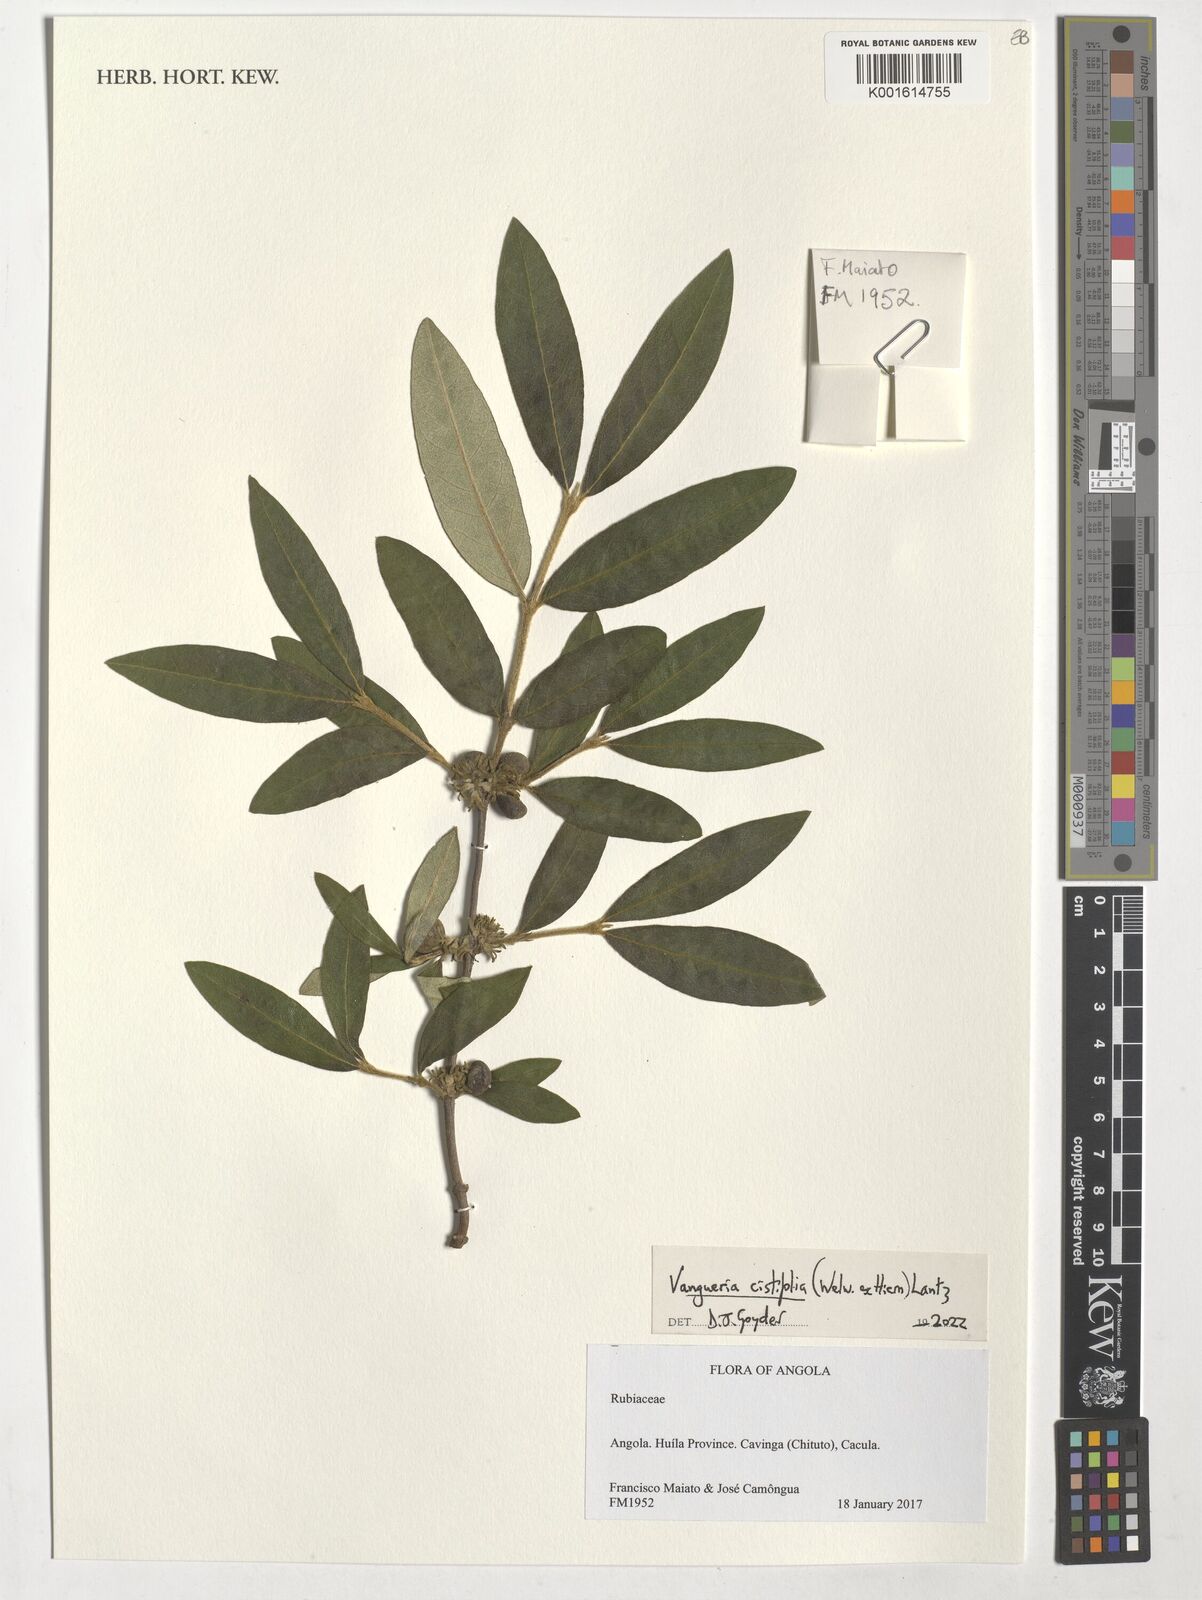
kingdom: Plantae
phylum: Tracheophyta
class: Magnoliopsida
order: Gentianales
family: Rubiaceae
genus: Vangueria
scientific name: Vangueria cistifolia
